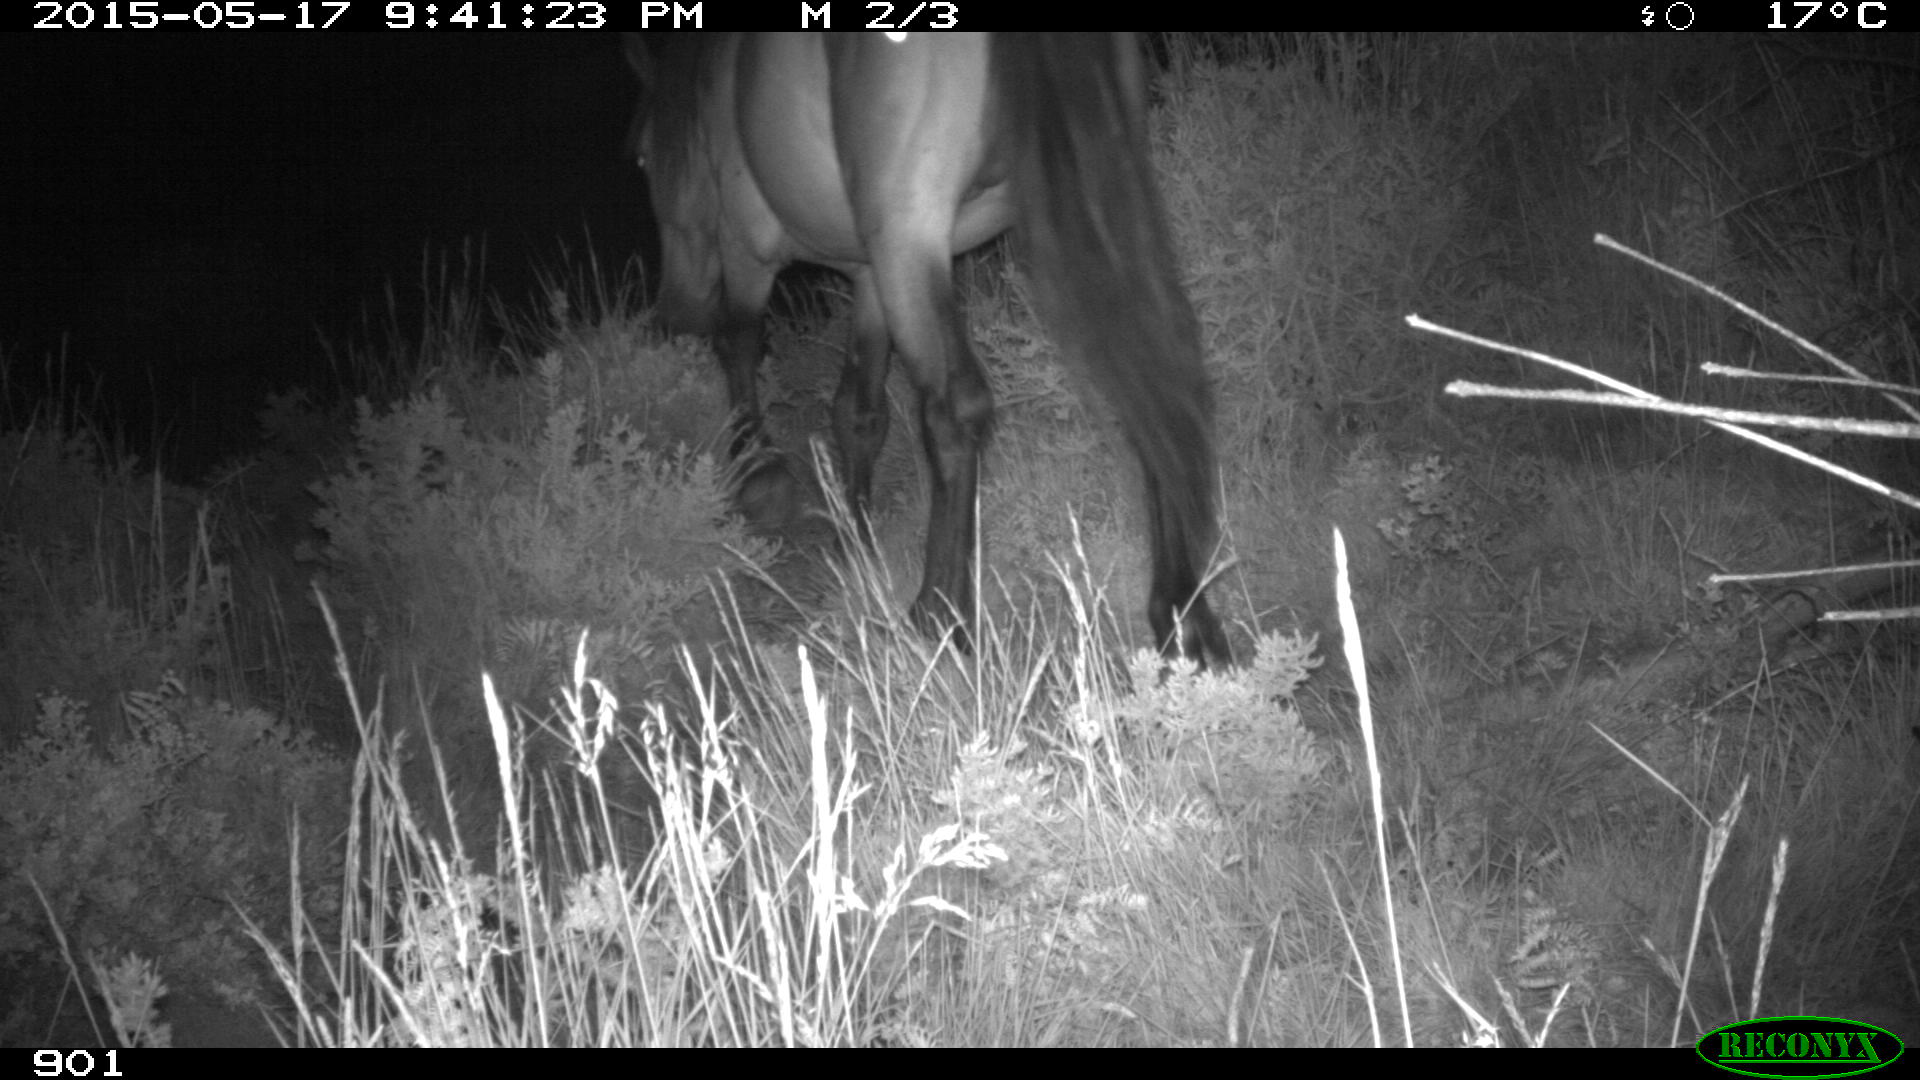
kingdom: Animalia
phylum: Chordata
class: Mammalia
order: Perissodactyla
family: Equidae
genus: Equus
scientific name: Equus caballus
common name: Horse
